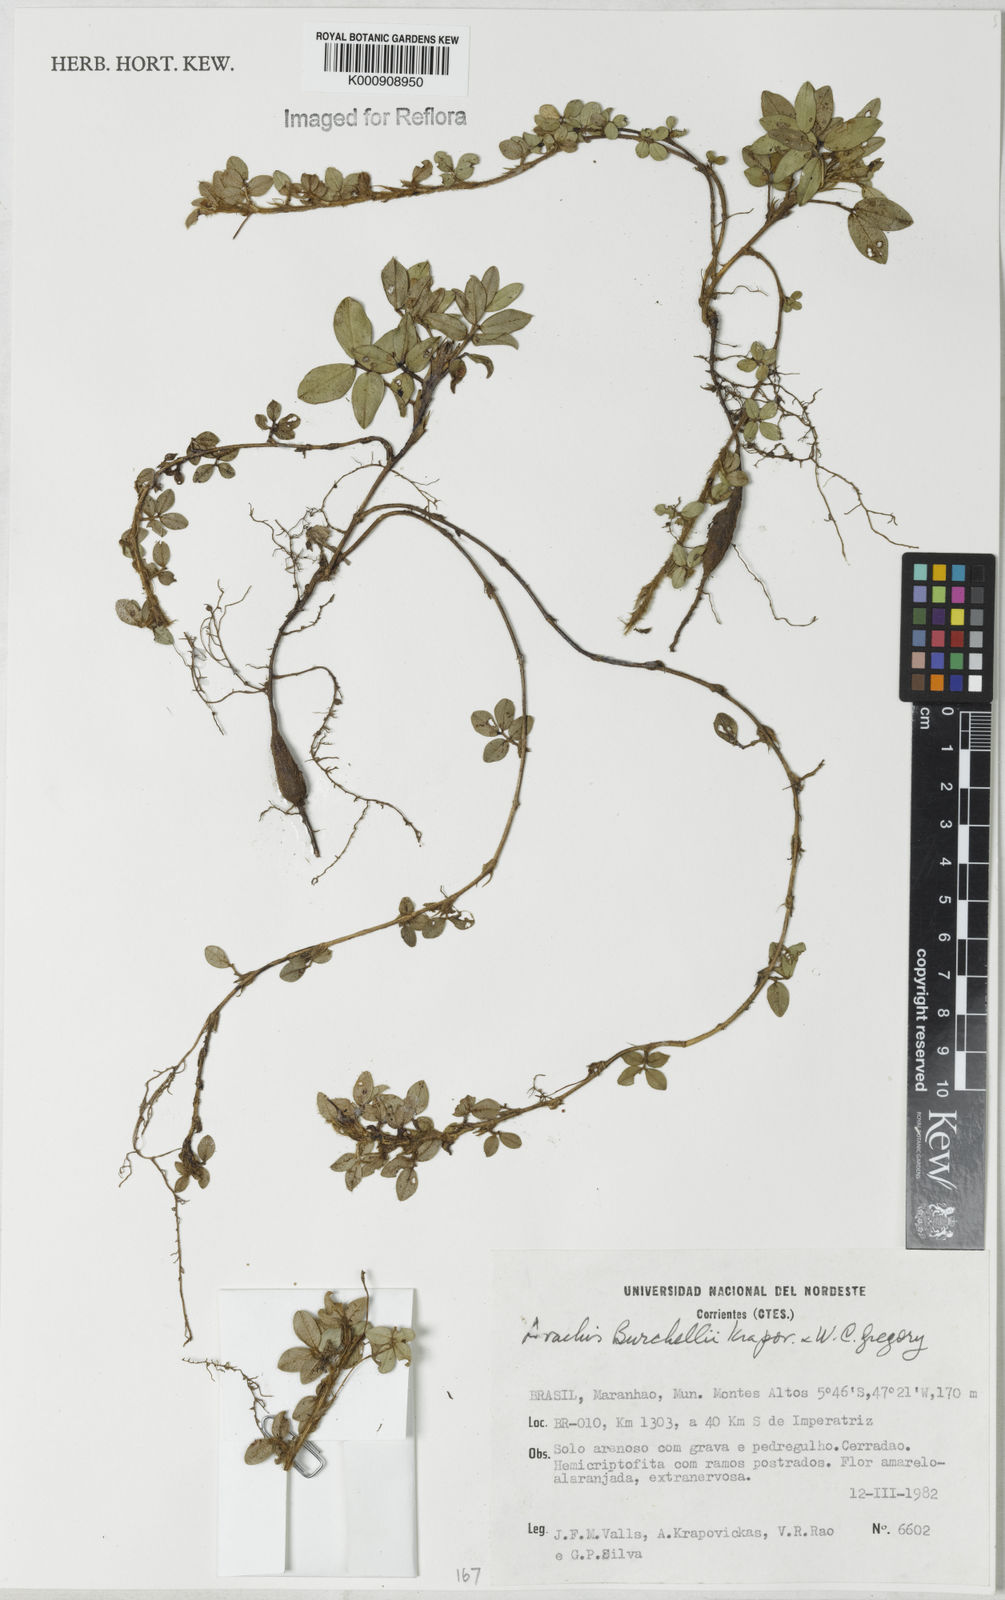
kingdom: Plantae
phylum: Tracheophyta
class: Magnoliopsida
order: Fabales
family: Fabaceae
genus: Arachis
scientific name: Arachis burchellii
